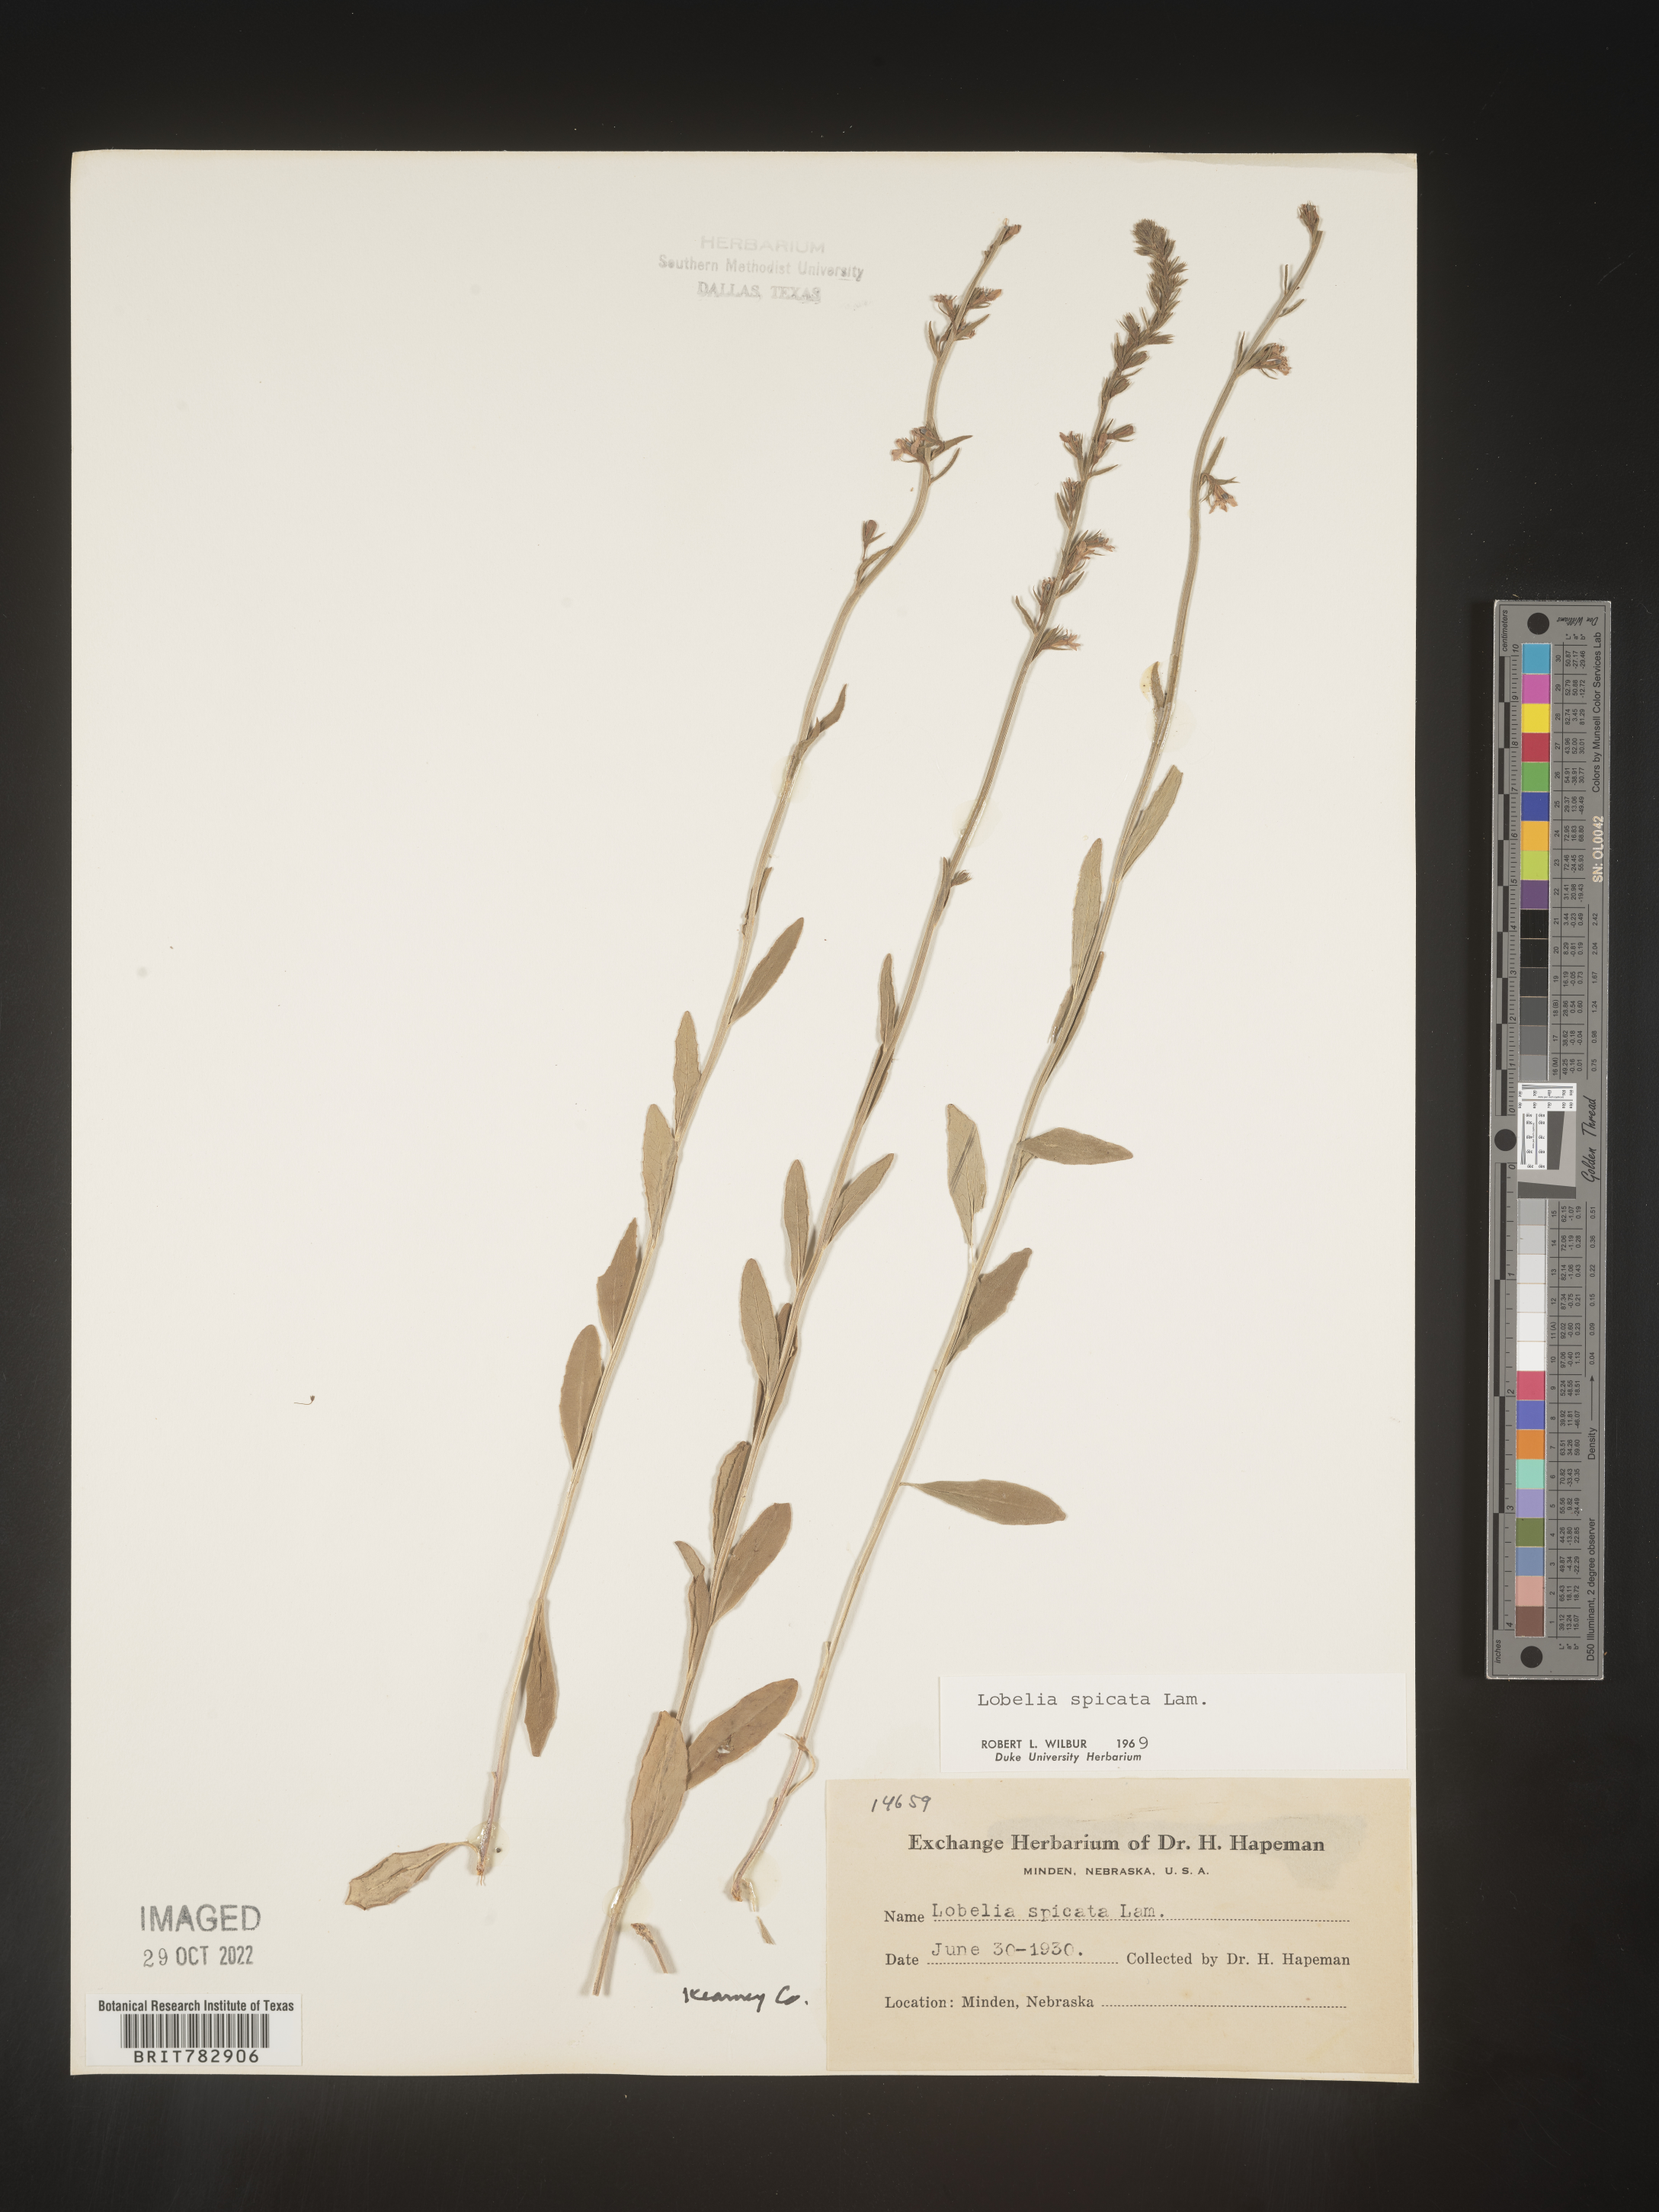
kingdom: Plantae
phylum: Tracheophyta
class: Magnoliopsida
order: Asterales
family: Campanulaceae
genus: Lobelia
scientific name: Lobelia spicata
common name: Pale-spike lobelia
